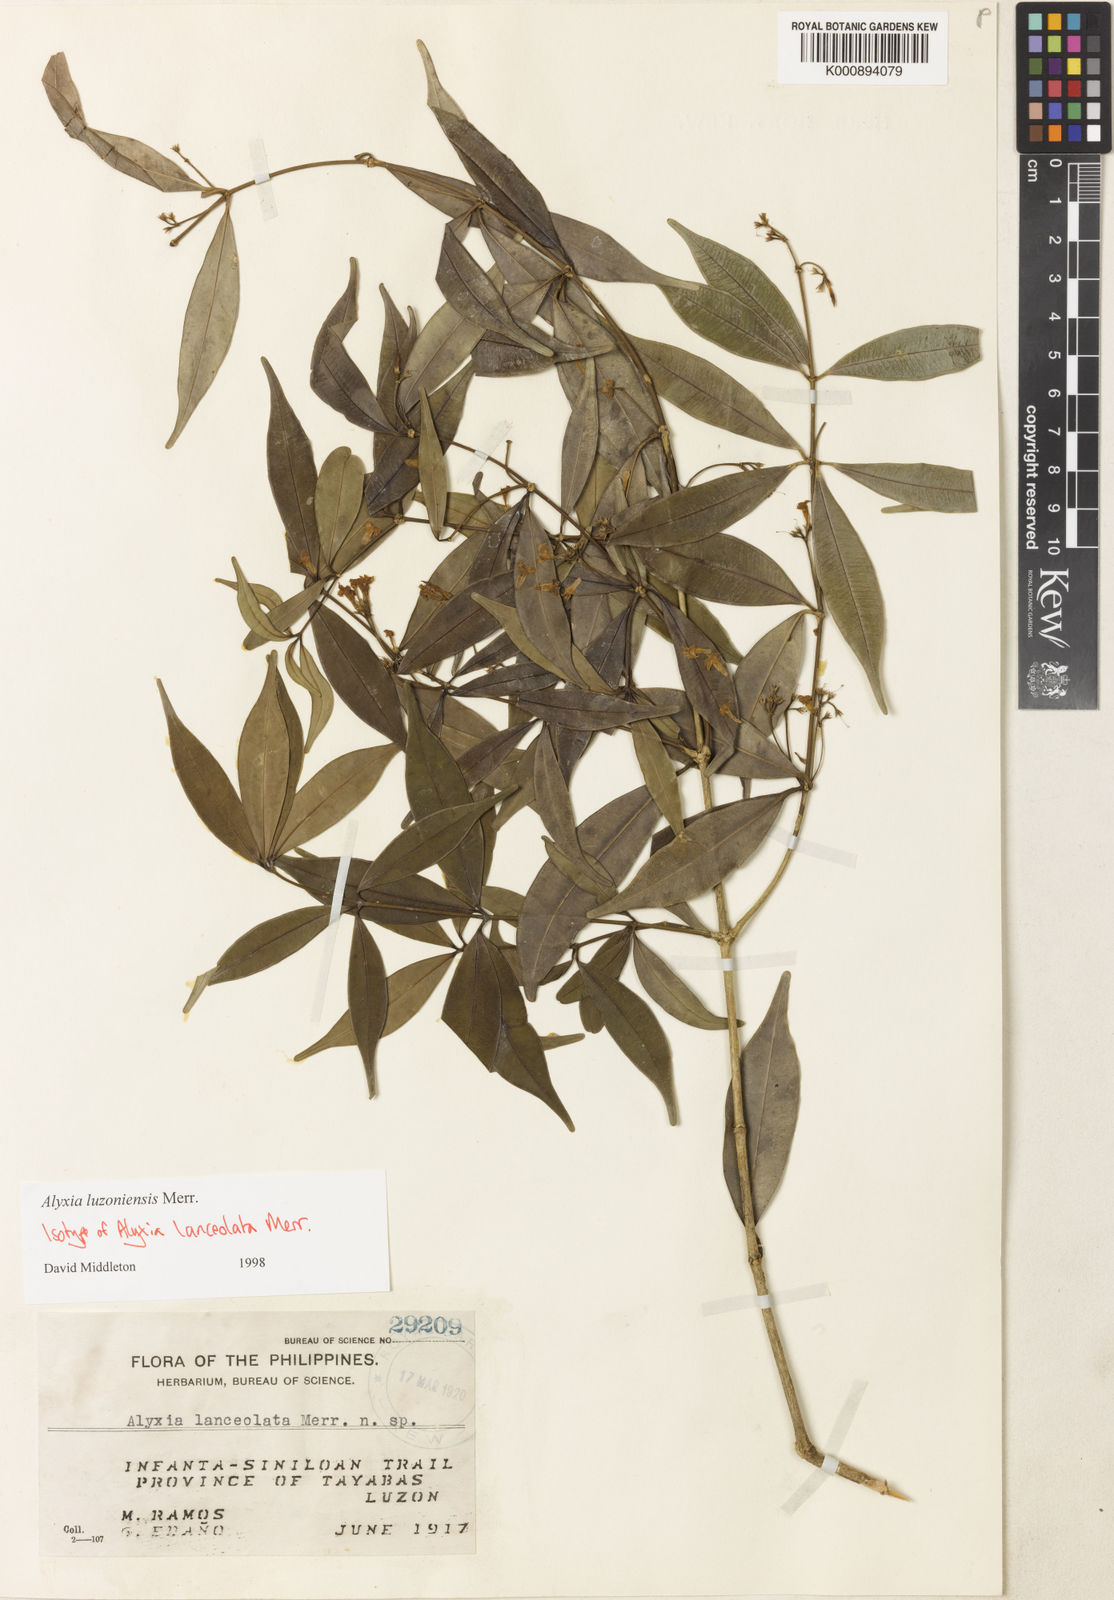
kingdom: Plantae
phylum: Tracheophyta
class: Magnoliopsida
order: Gentianales
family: Apocynaceae
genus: Alyxia
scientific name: Alyxia luzoniensis
